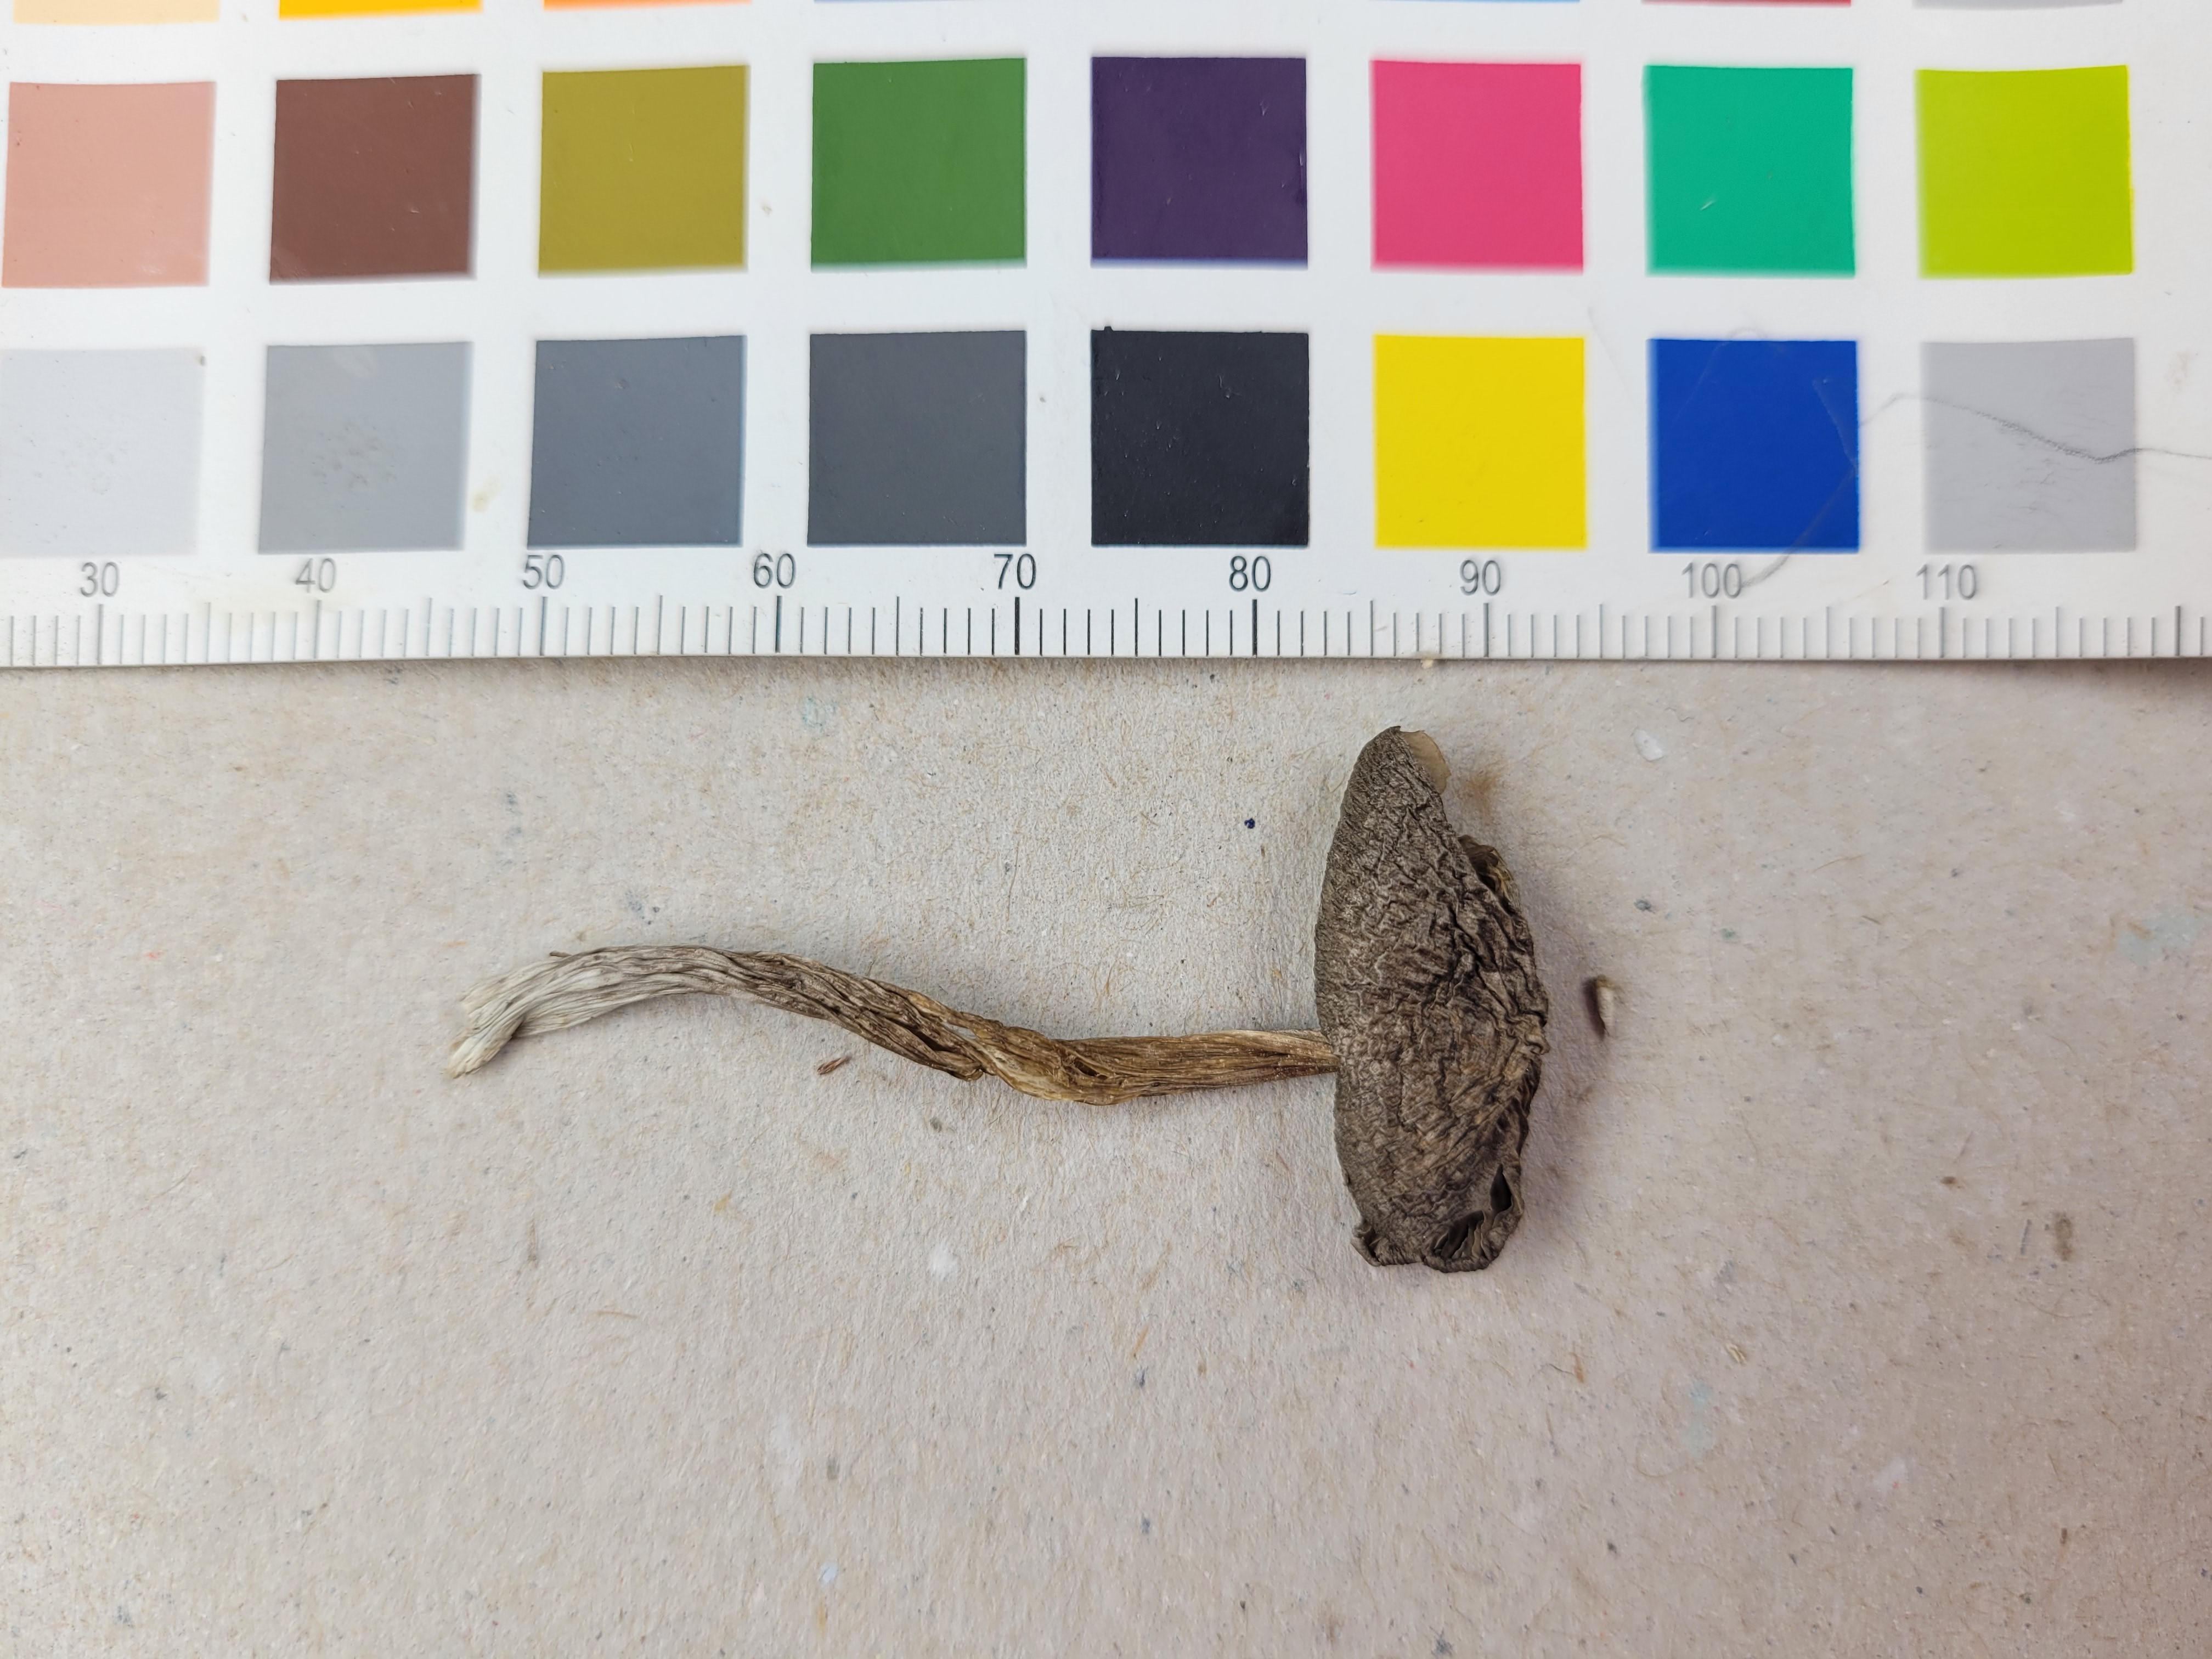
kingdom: Fungi
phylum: Basidiomycota
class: Agaricomycetes
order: Agaricales
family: Entolomataceae
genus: Entoloma
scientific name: Entoloma jubatum
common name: Sepia pinkgill
